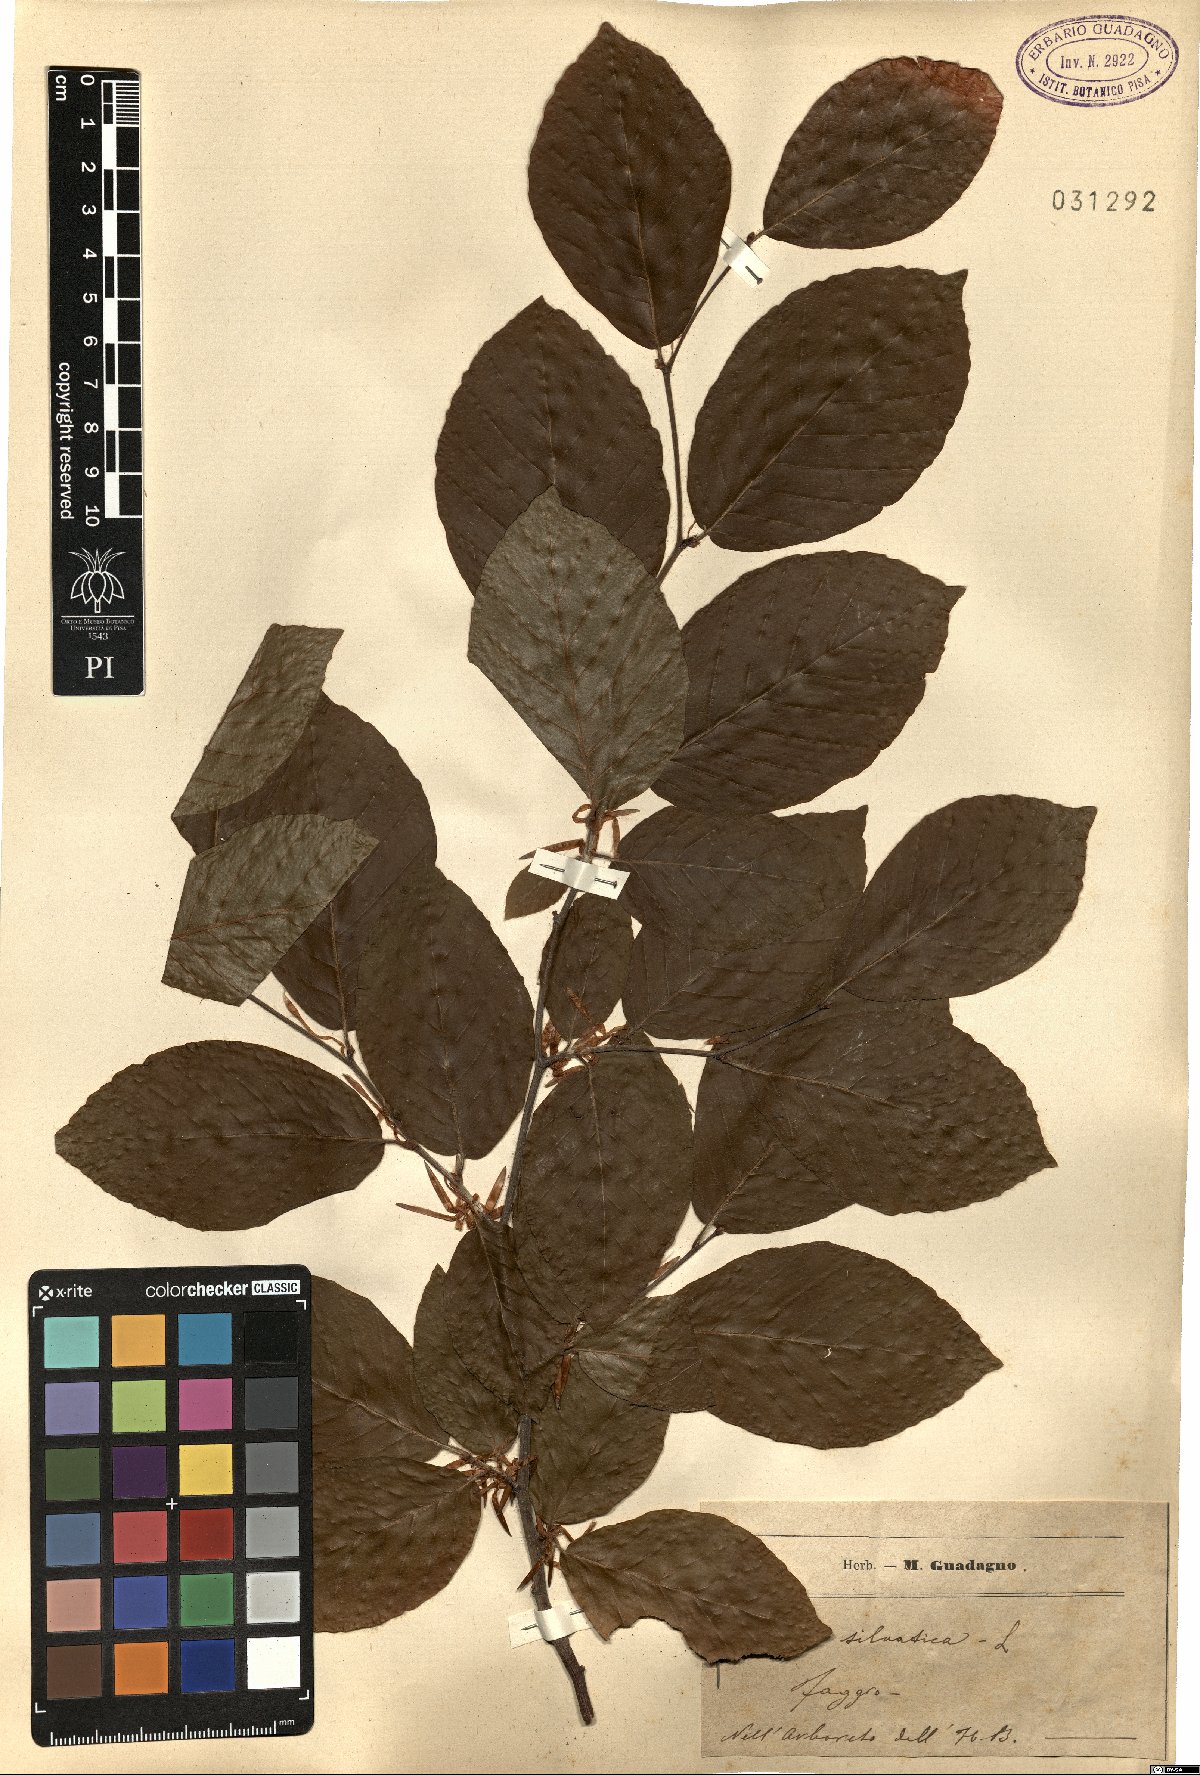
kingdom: Plantae
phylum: Tracheophyta
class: Magnoliopsida
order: Fagales
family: Fagaceae
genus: Fagus
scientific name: Fagus sylvatica
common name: Beech
